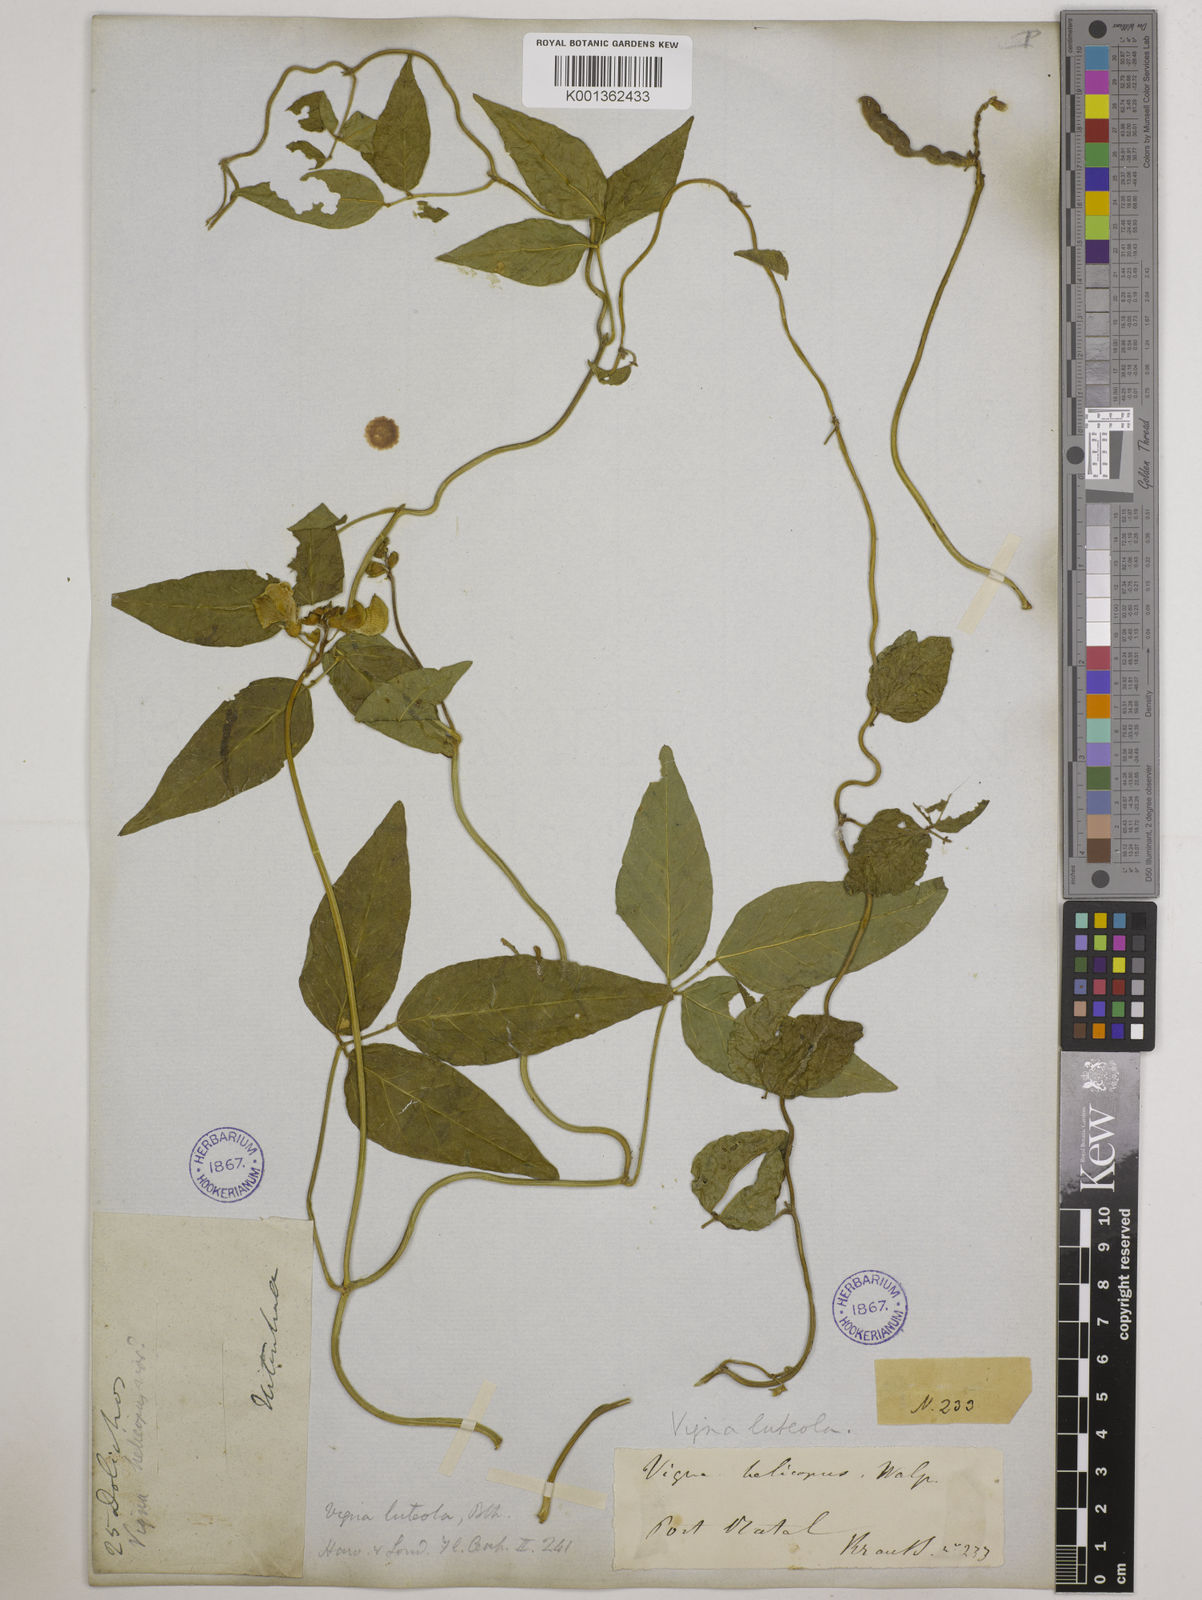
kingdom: Plantae
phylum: Tracheophyta
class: Magnoliopsida
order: Fabales
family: Fabaceae
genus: Vigna
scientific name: Vigna luteola
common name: Hairypod cowpea
